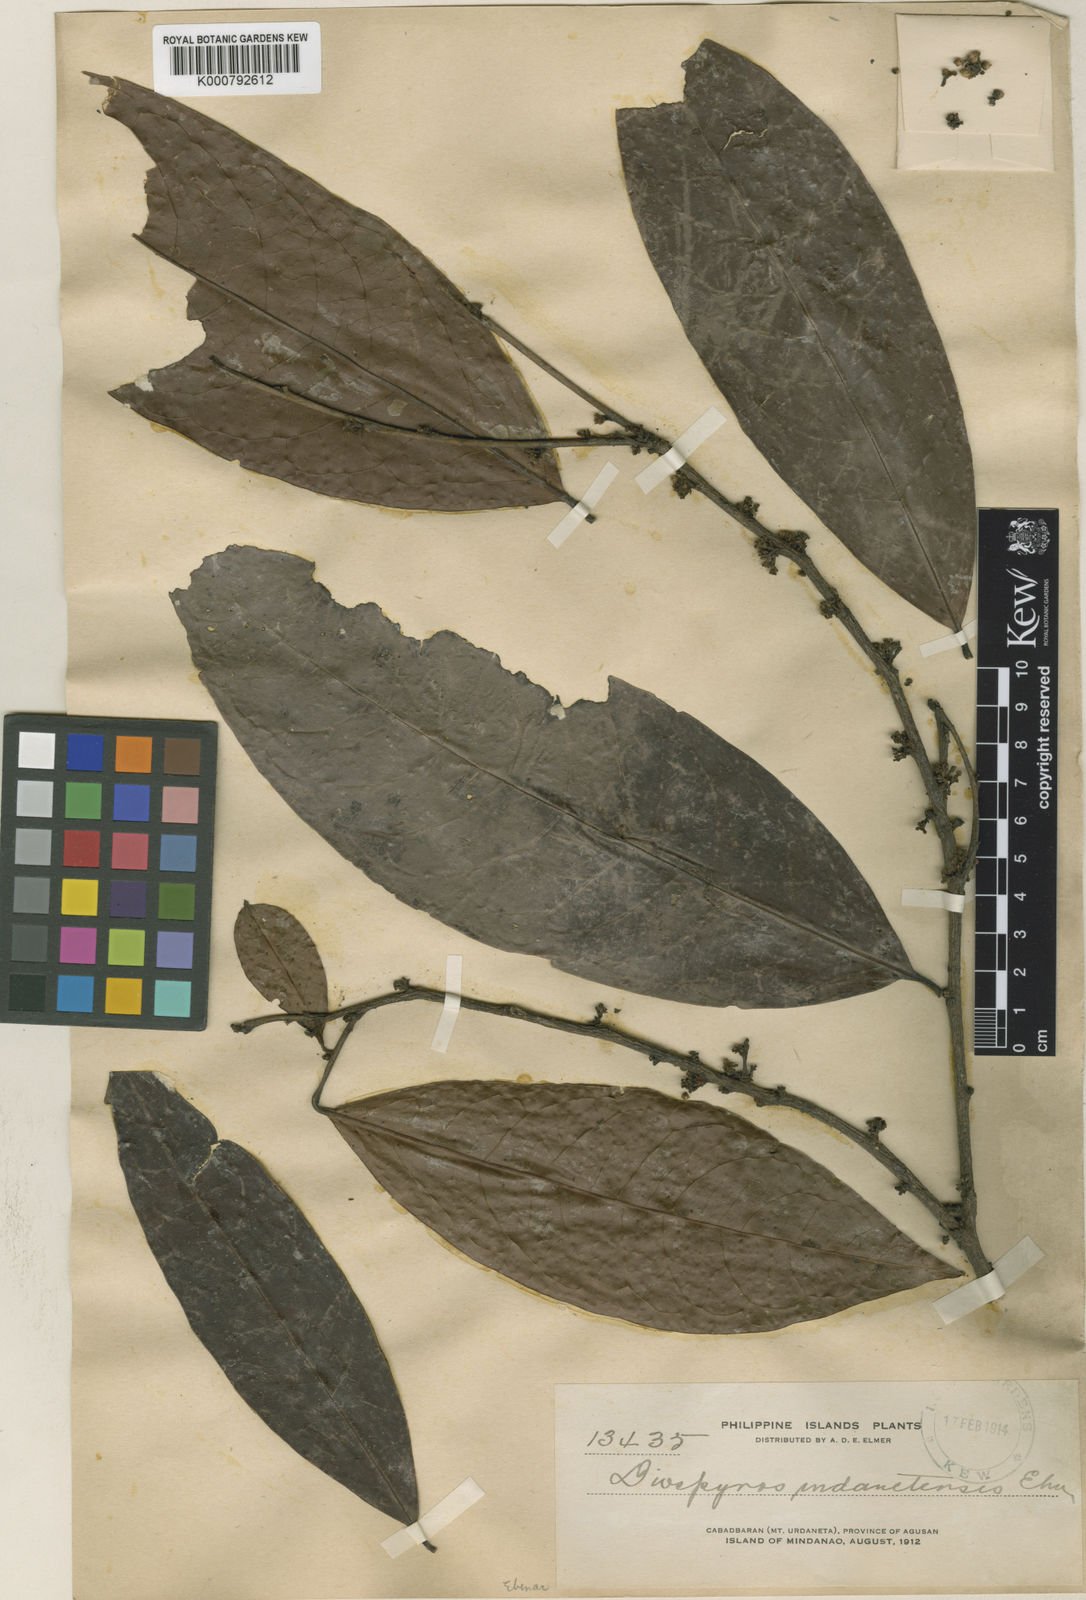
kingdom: Plantae
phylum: Tracheophyta
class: Magnoliopsida
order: Ericales
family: Ebenaceae
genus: Diospyros
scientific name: Diospyros cauliflora
